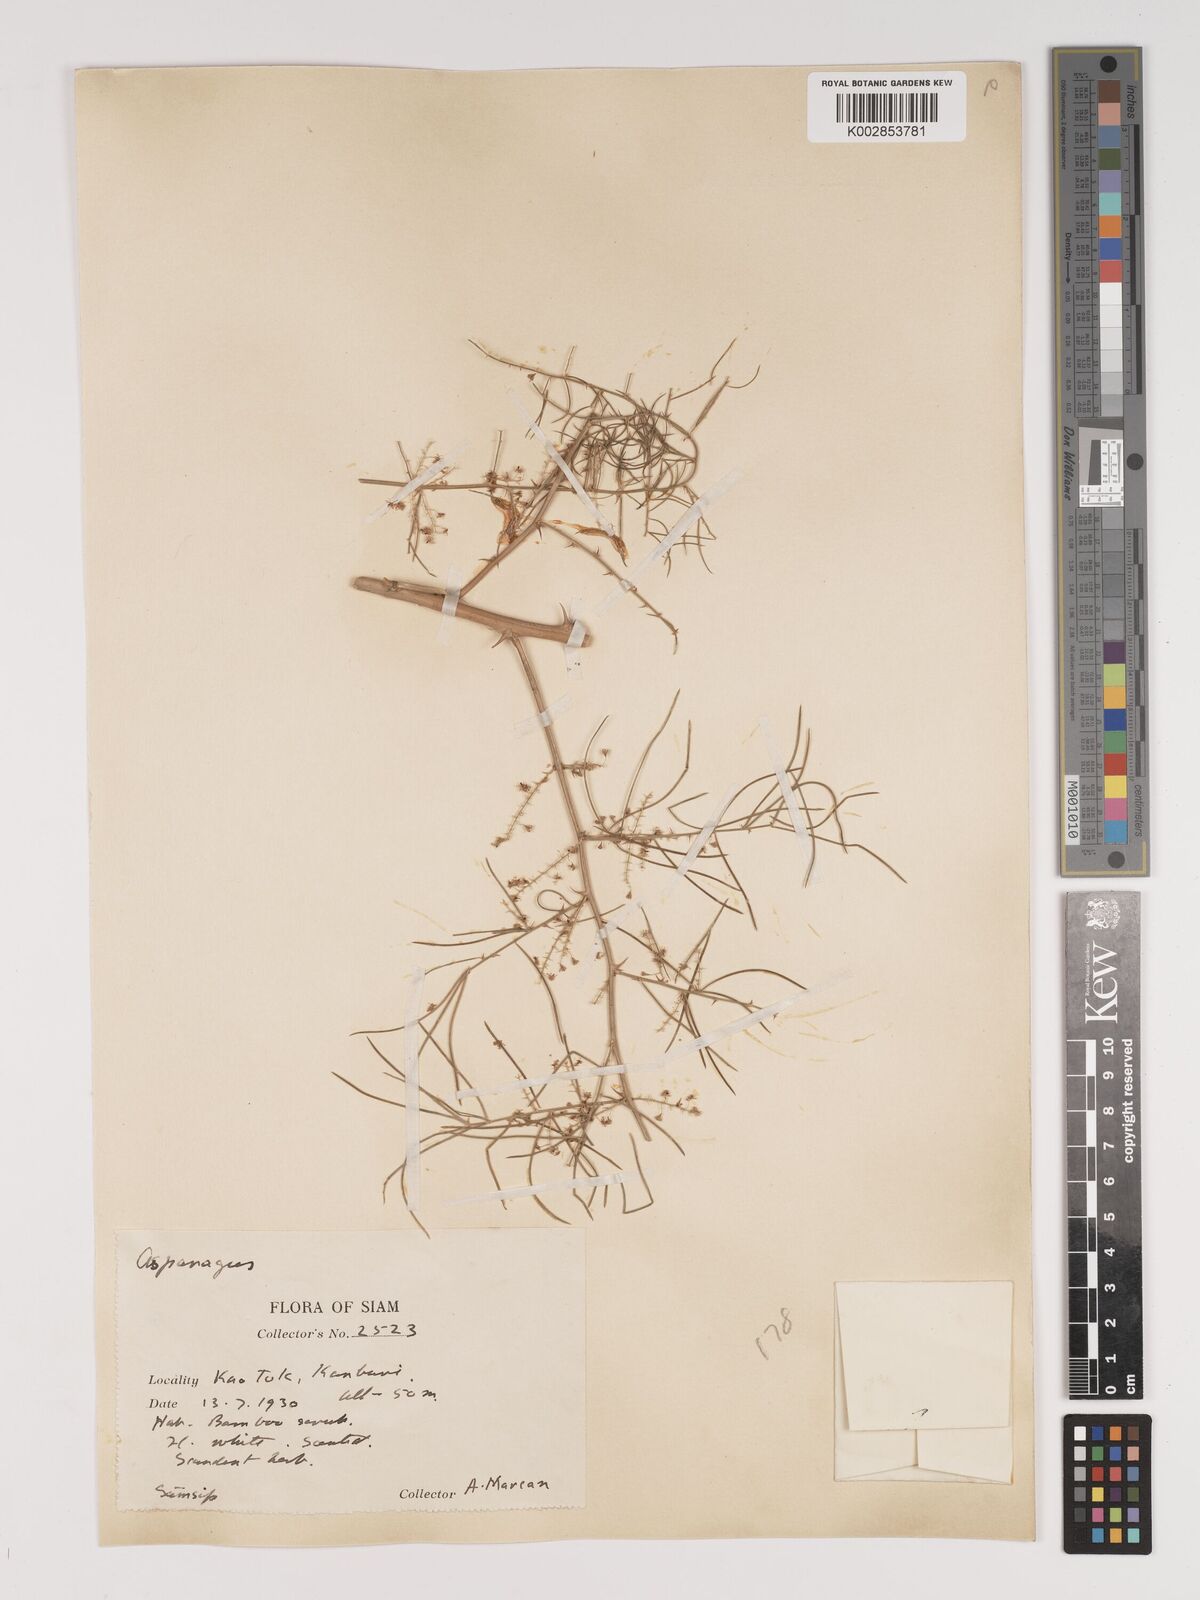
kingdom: Plantae
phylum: Tracheophyta
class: Liliopsida
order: Asparagales
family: Asparagaceae
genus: Asparagus
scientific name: Asparagus racemosus
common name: Asparagus-fern
